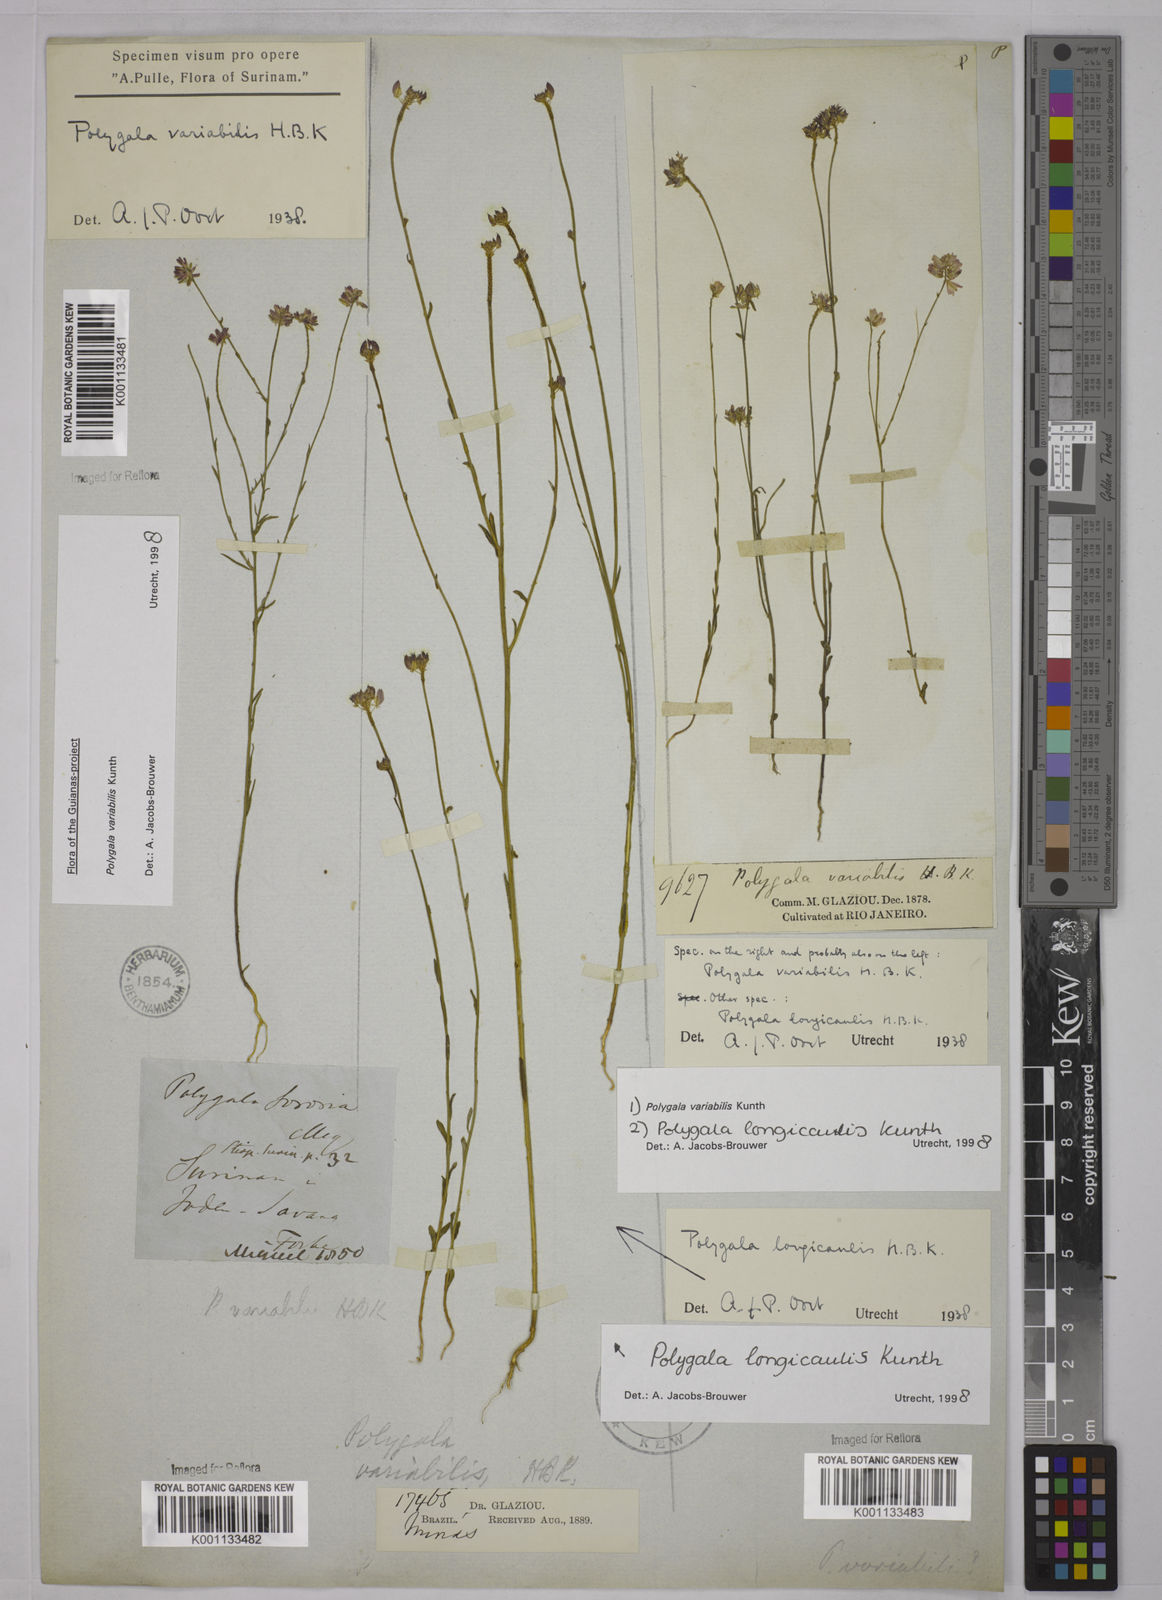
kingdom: Plantae
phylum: Tracheophyta
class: Magnoliopsida
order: Fabales
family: Polygalaceae
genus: Polygala
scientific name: Polygala trichosperma
